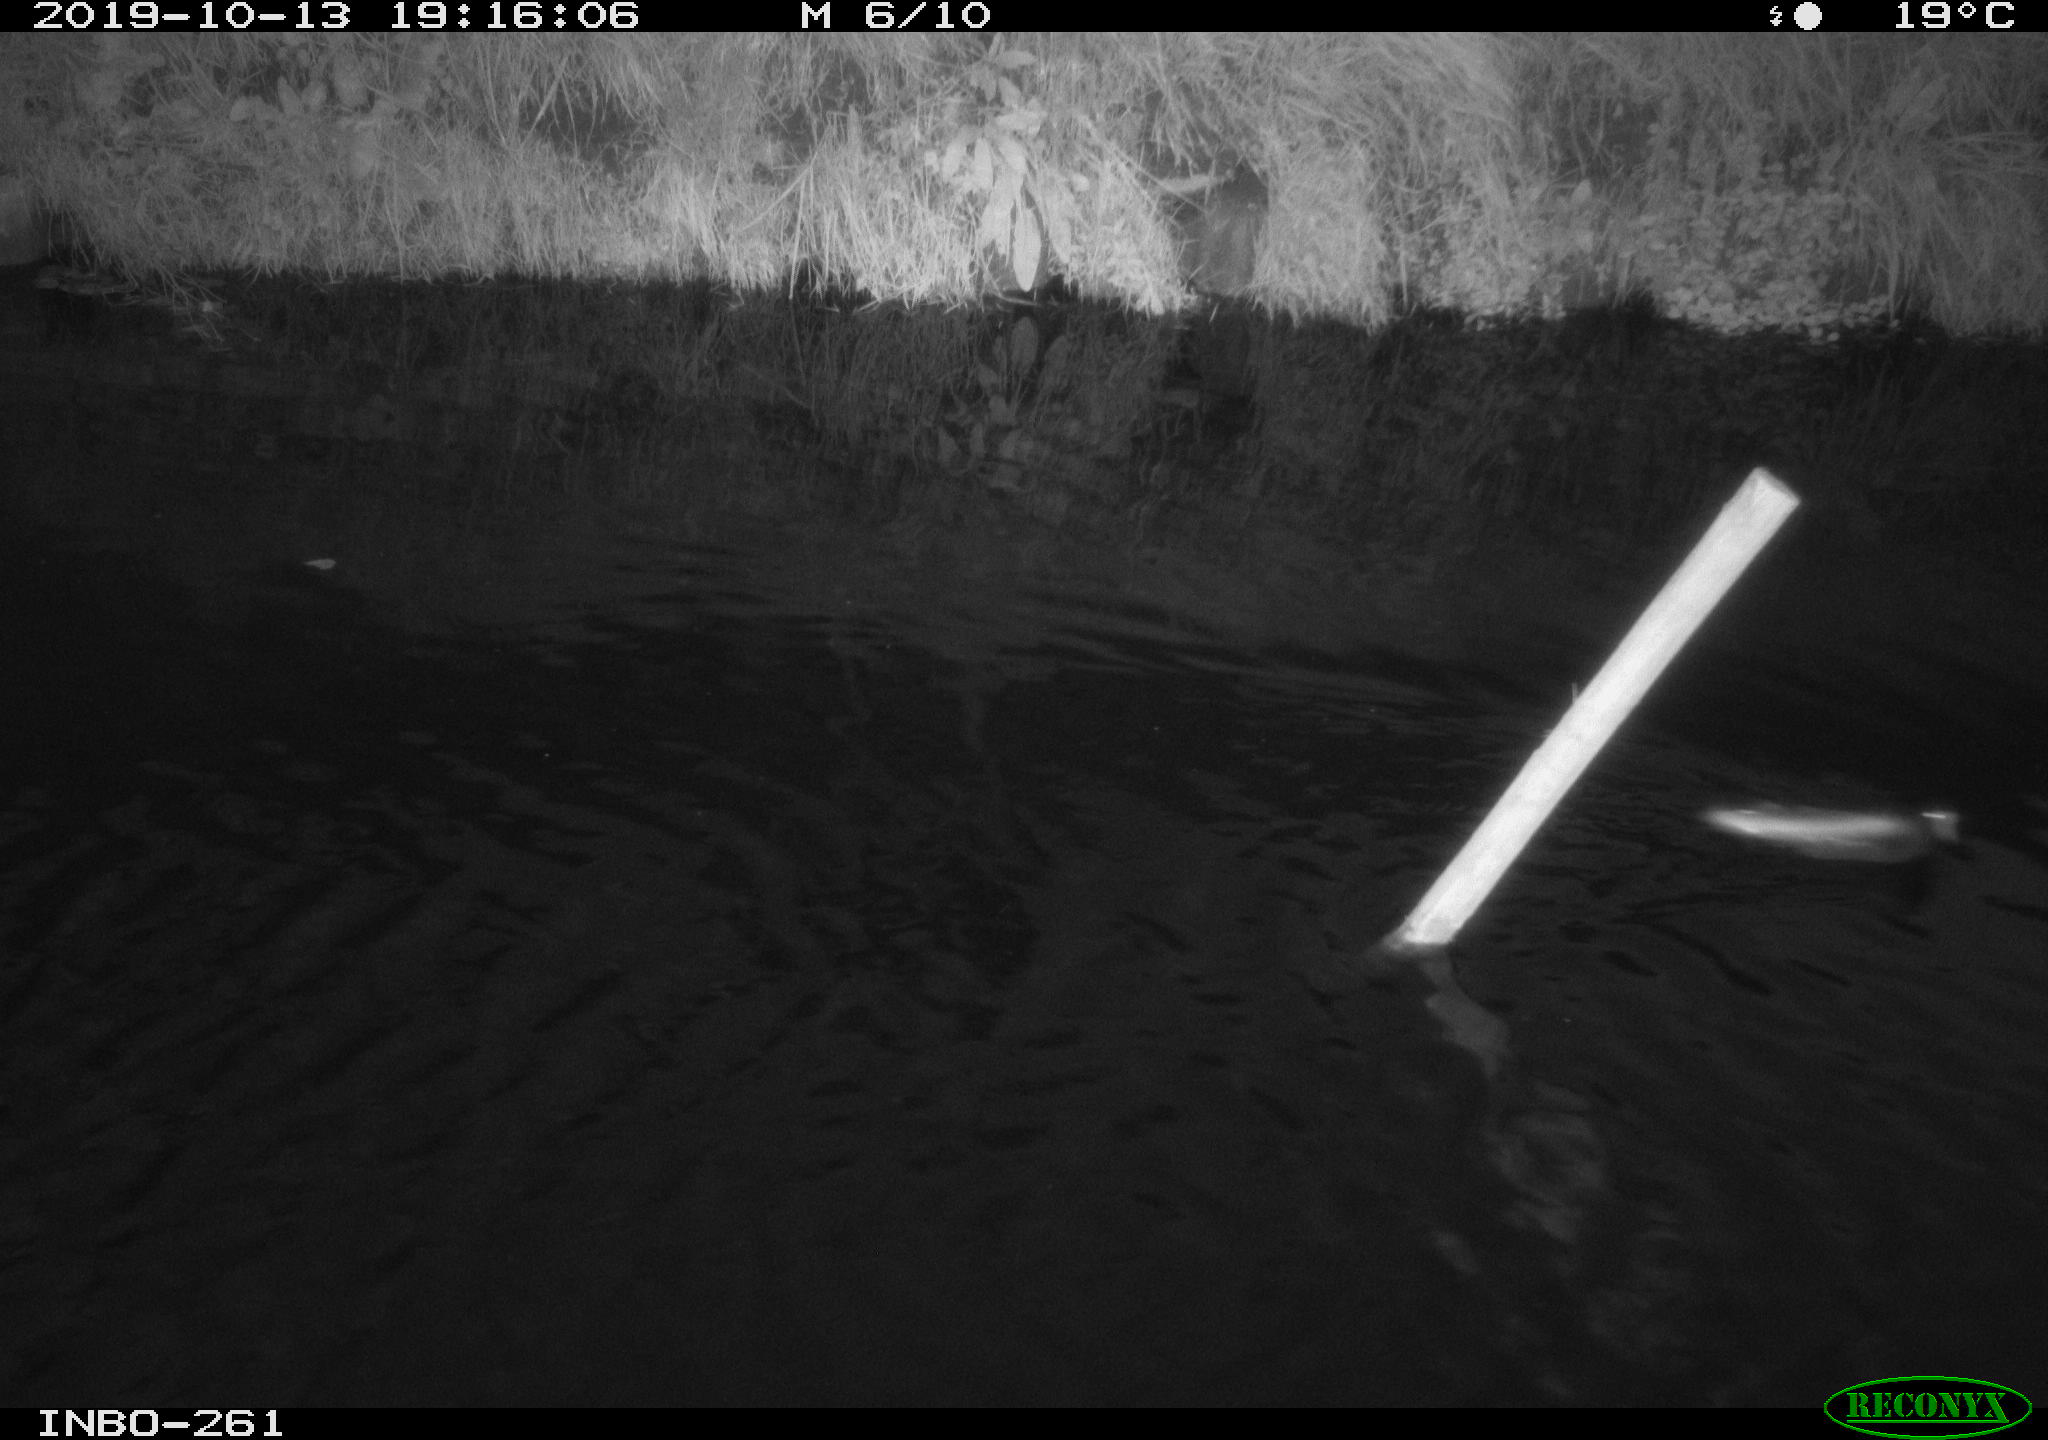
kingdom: Animalia
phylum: Chordata
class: Aves
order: Gruiformes
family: Rallidae
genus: Gallinula
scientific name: Gallinula chloropus
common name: Common moorhen
